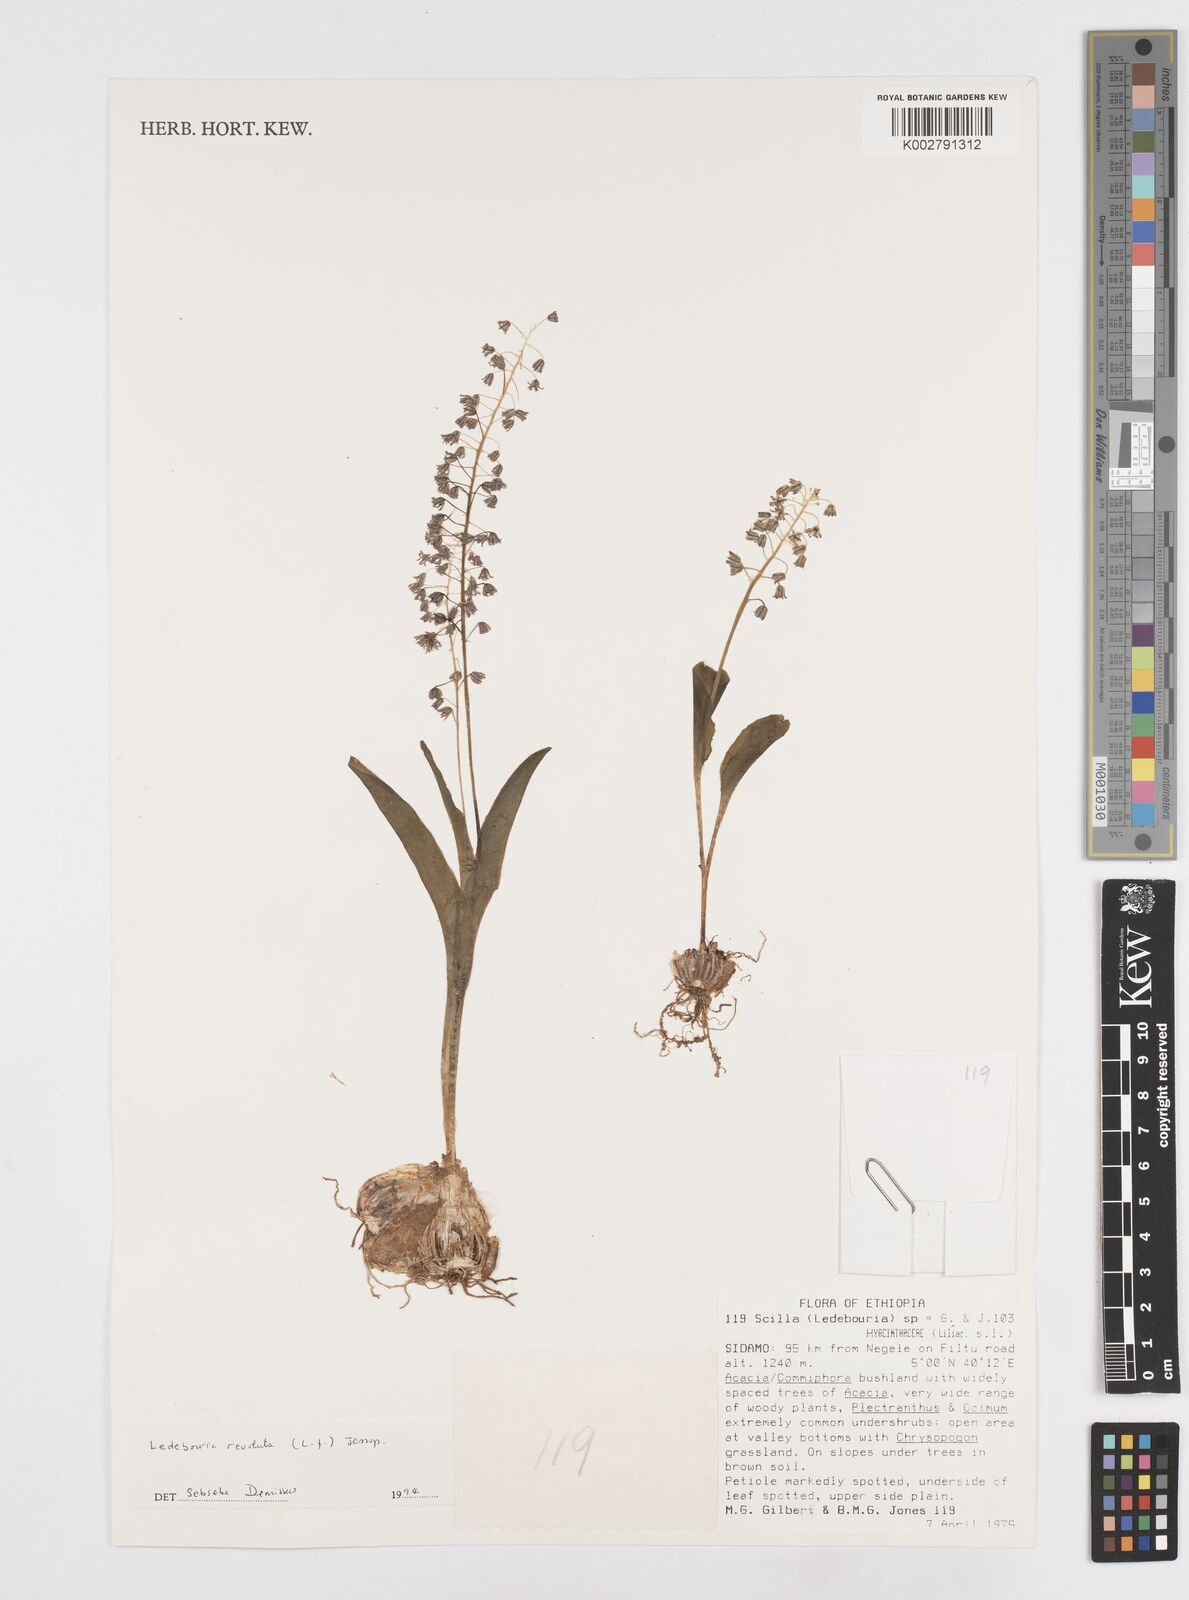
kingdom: Plantae
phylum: Tracheophyta
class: Liliopsida
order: Asparagales
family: Asparagaceae
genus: Scilla
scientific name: Scilla
